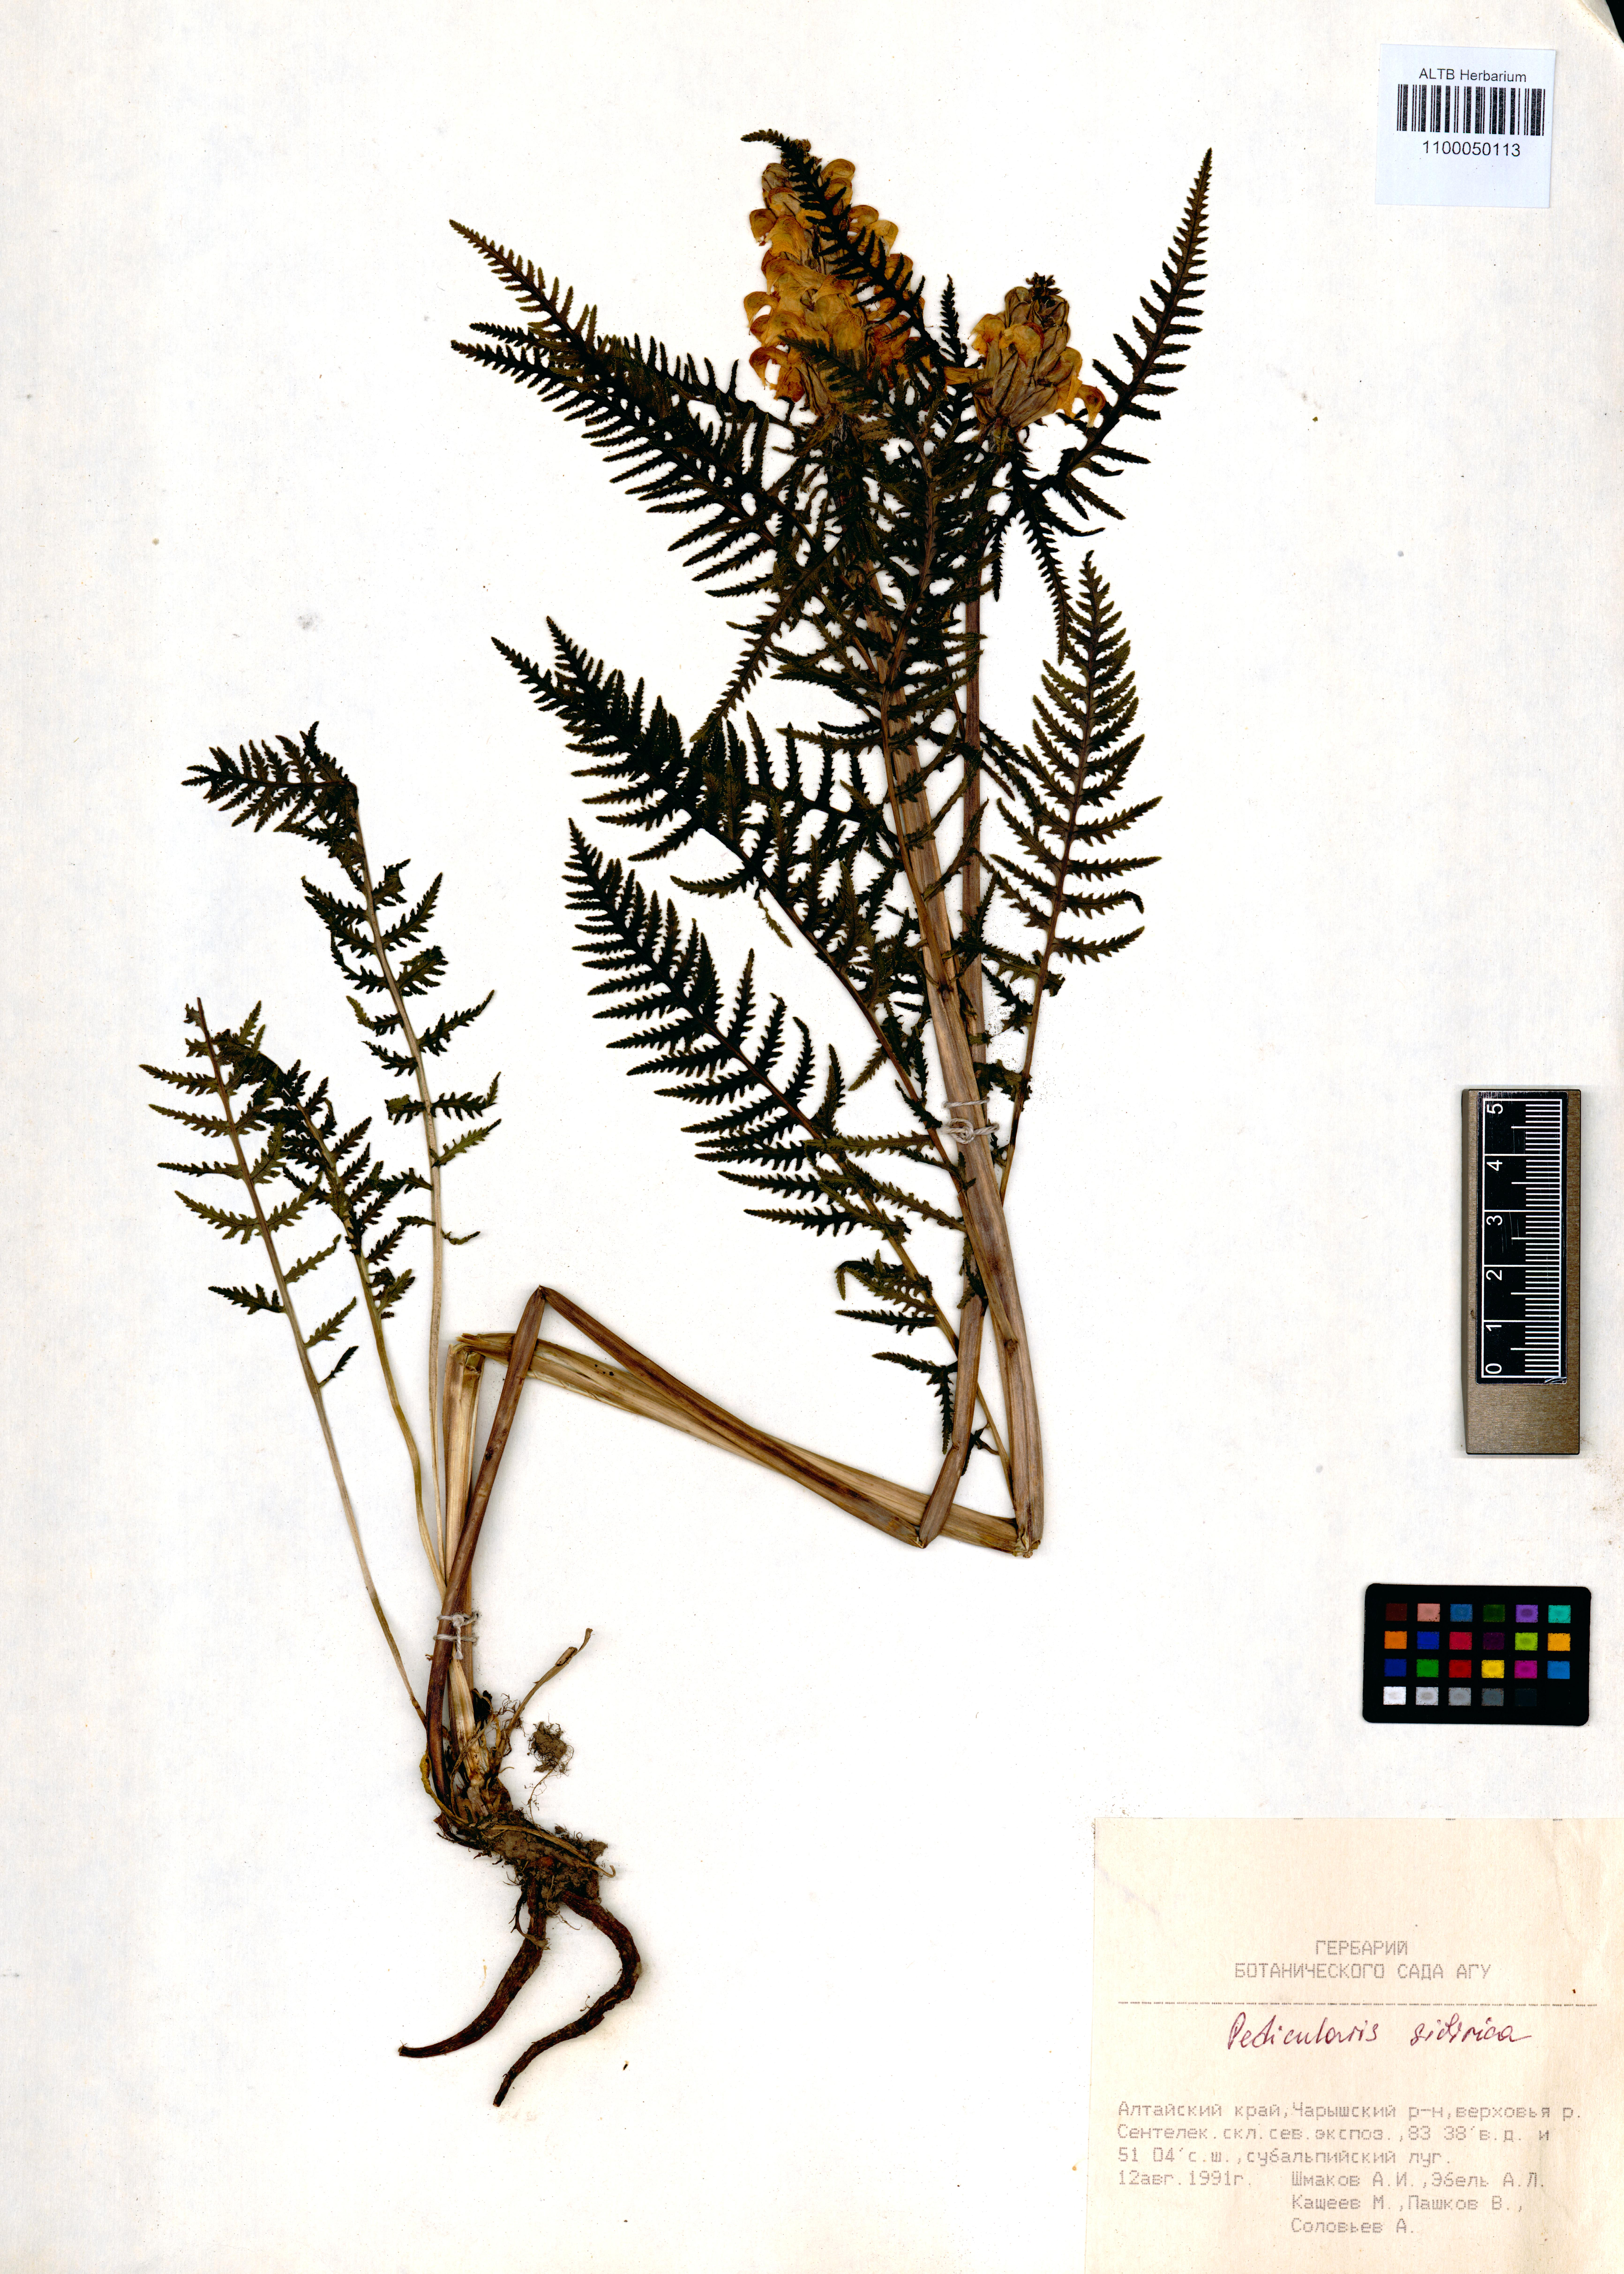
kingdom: Plantae
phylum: Tracheophyta
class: Magnoliopsida
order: Lamiales
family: Orobanchaceae
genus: Pedicularis
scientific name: Pedicularis sibirica
